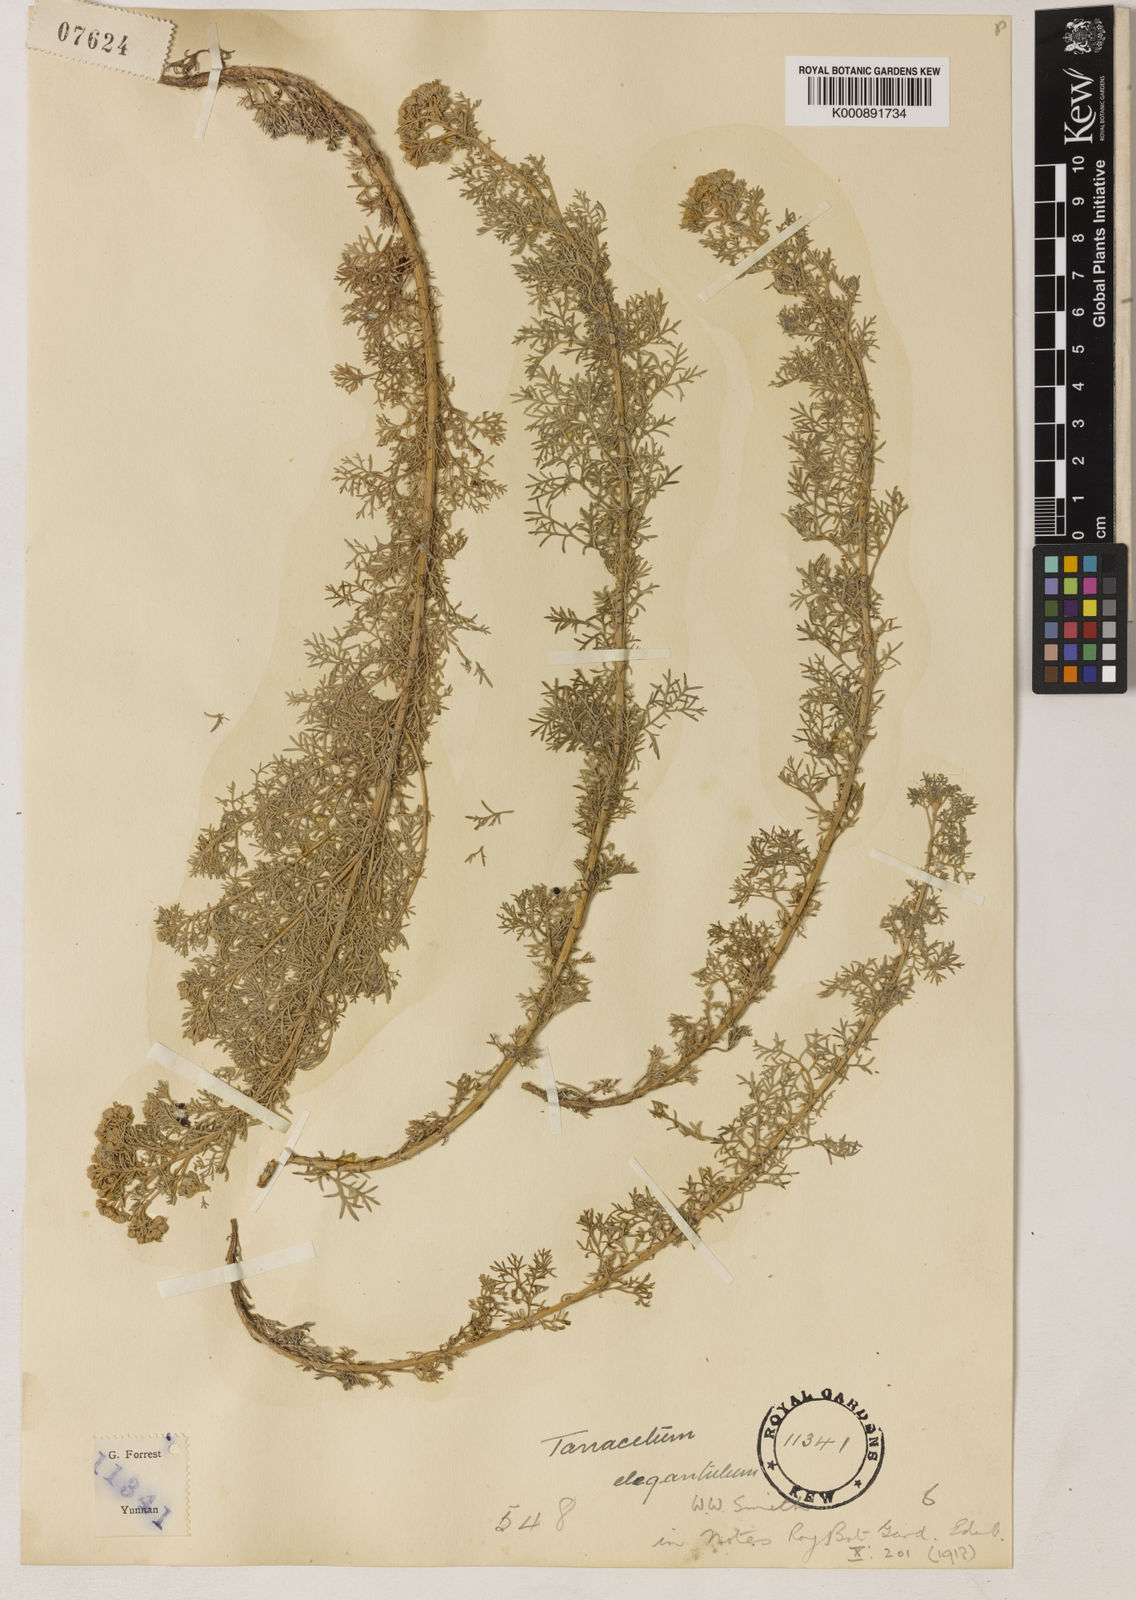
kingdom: Plantae
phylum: Tracheophyta
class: Magnoliopsida
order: Asterales
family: Asteraceae
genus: Ajania
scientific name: Ajania elegantula
